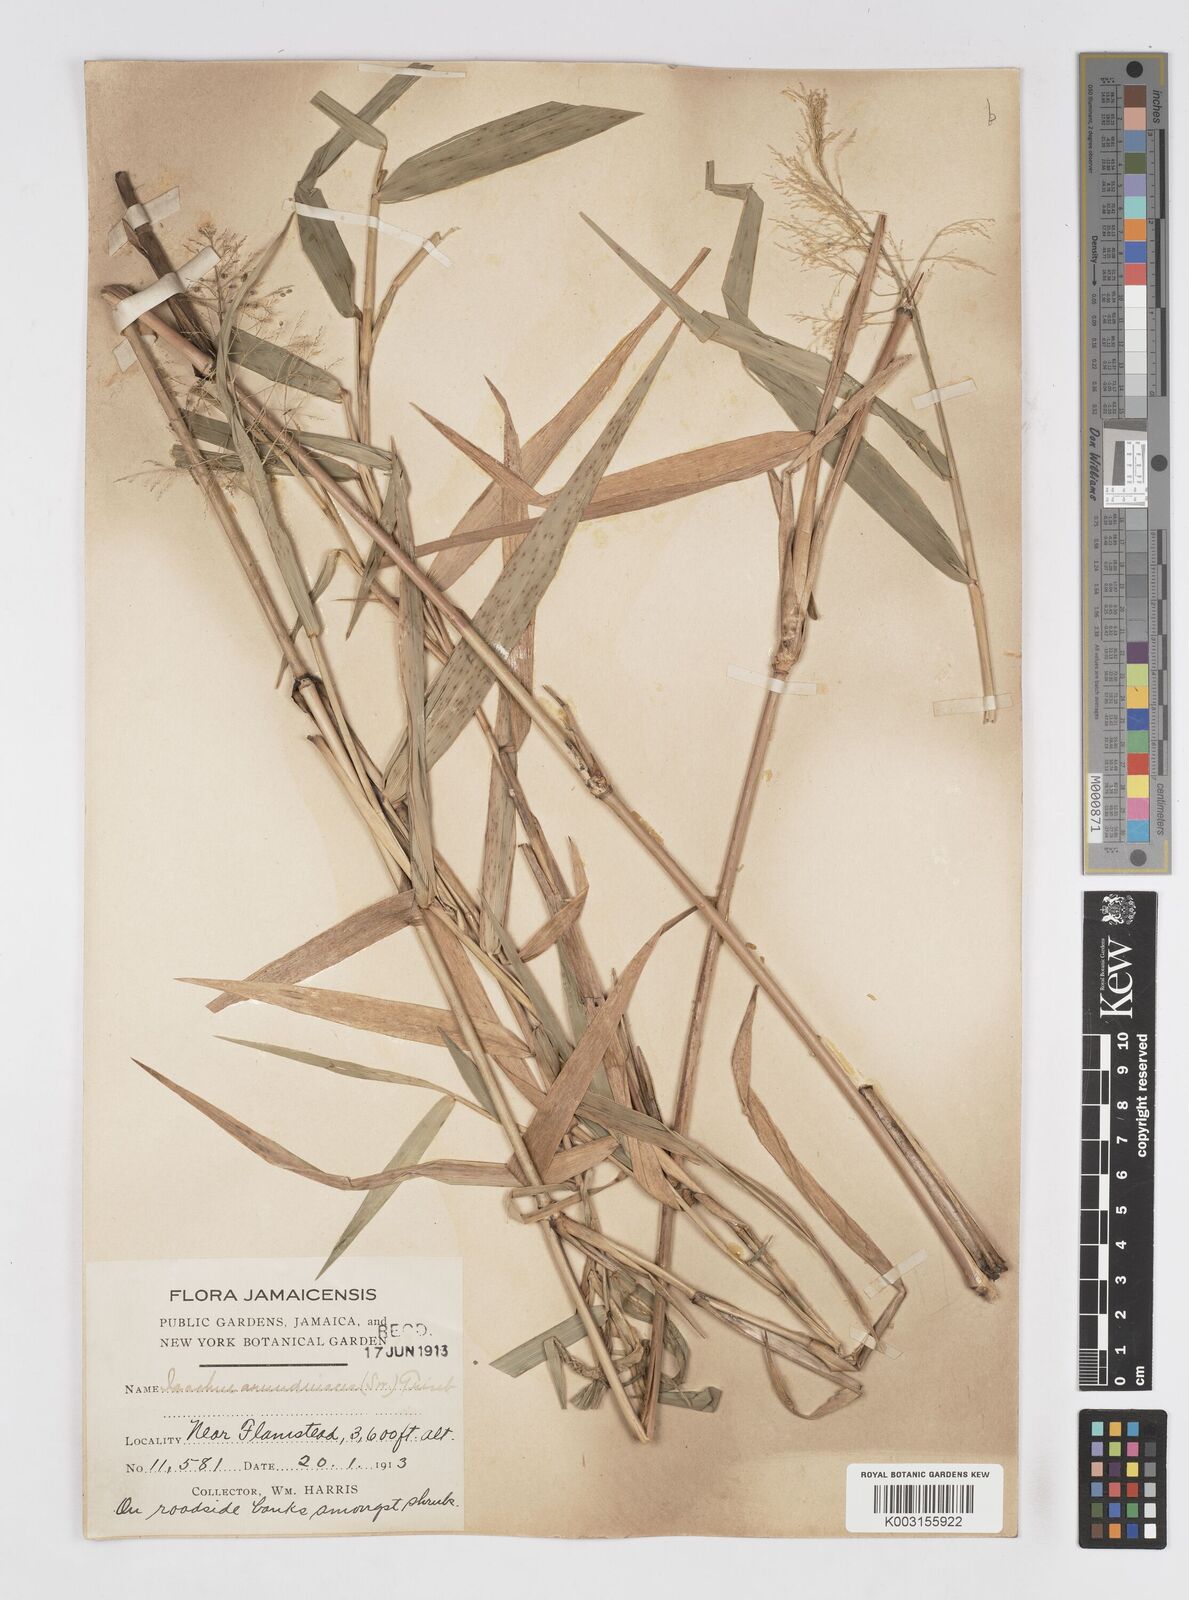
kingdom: Plantae
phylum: Tracheophyta
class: Liliopsida
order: Poales
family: Poaceae
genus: Isachne
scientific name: Isachne arundinacea
